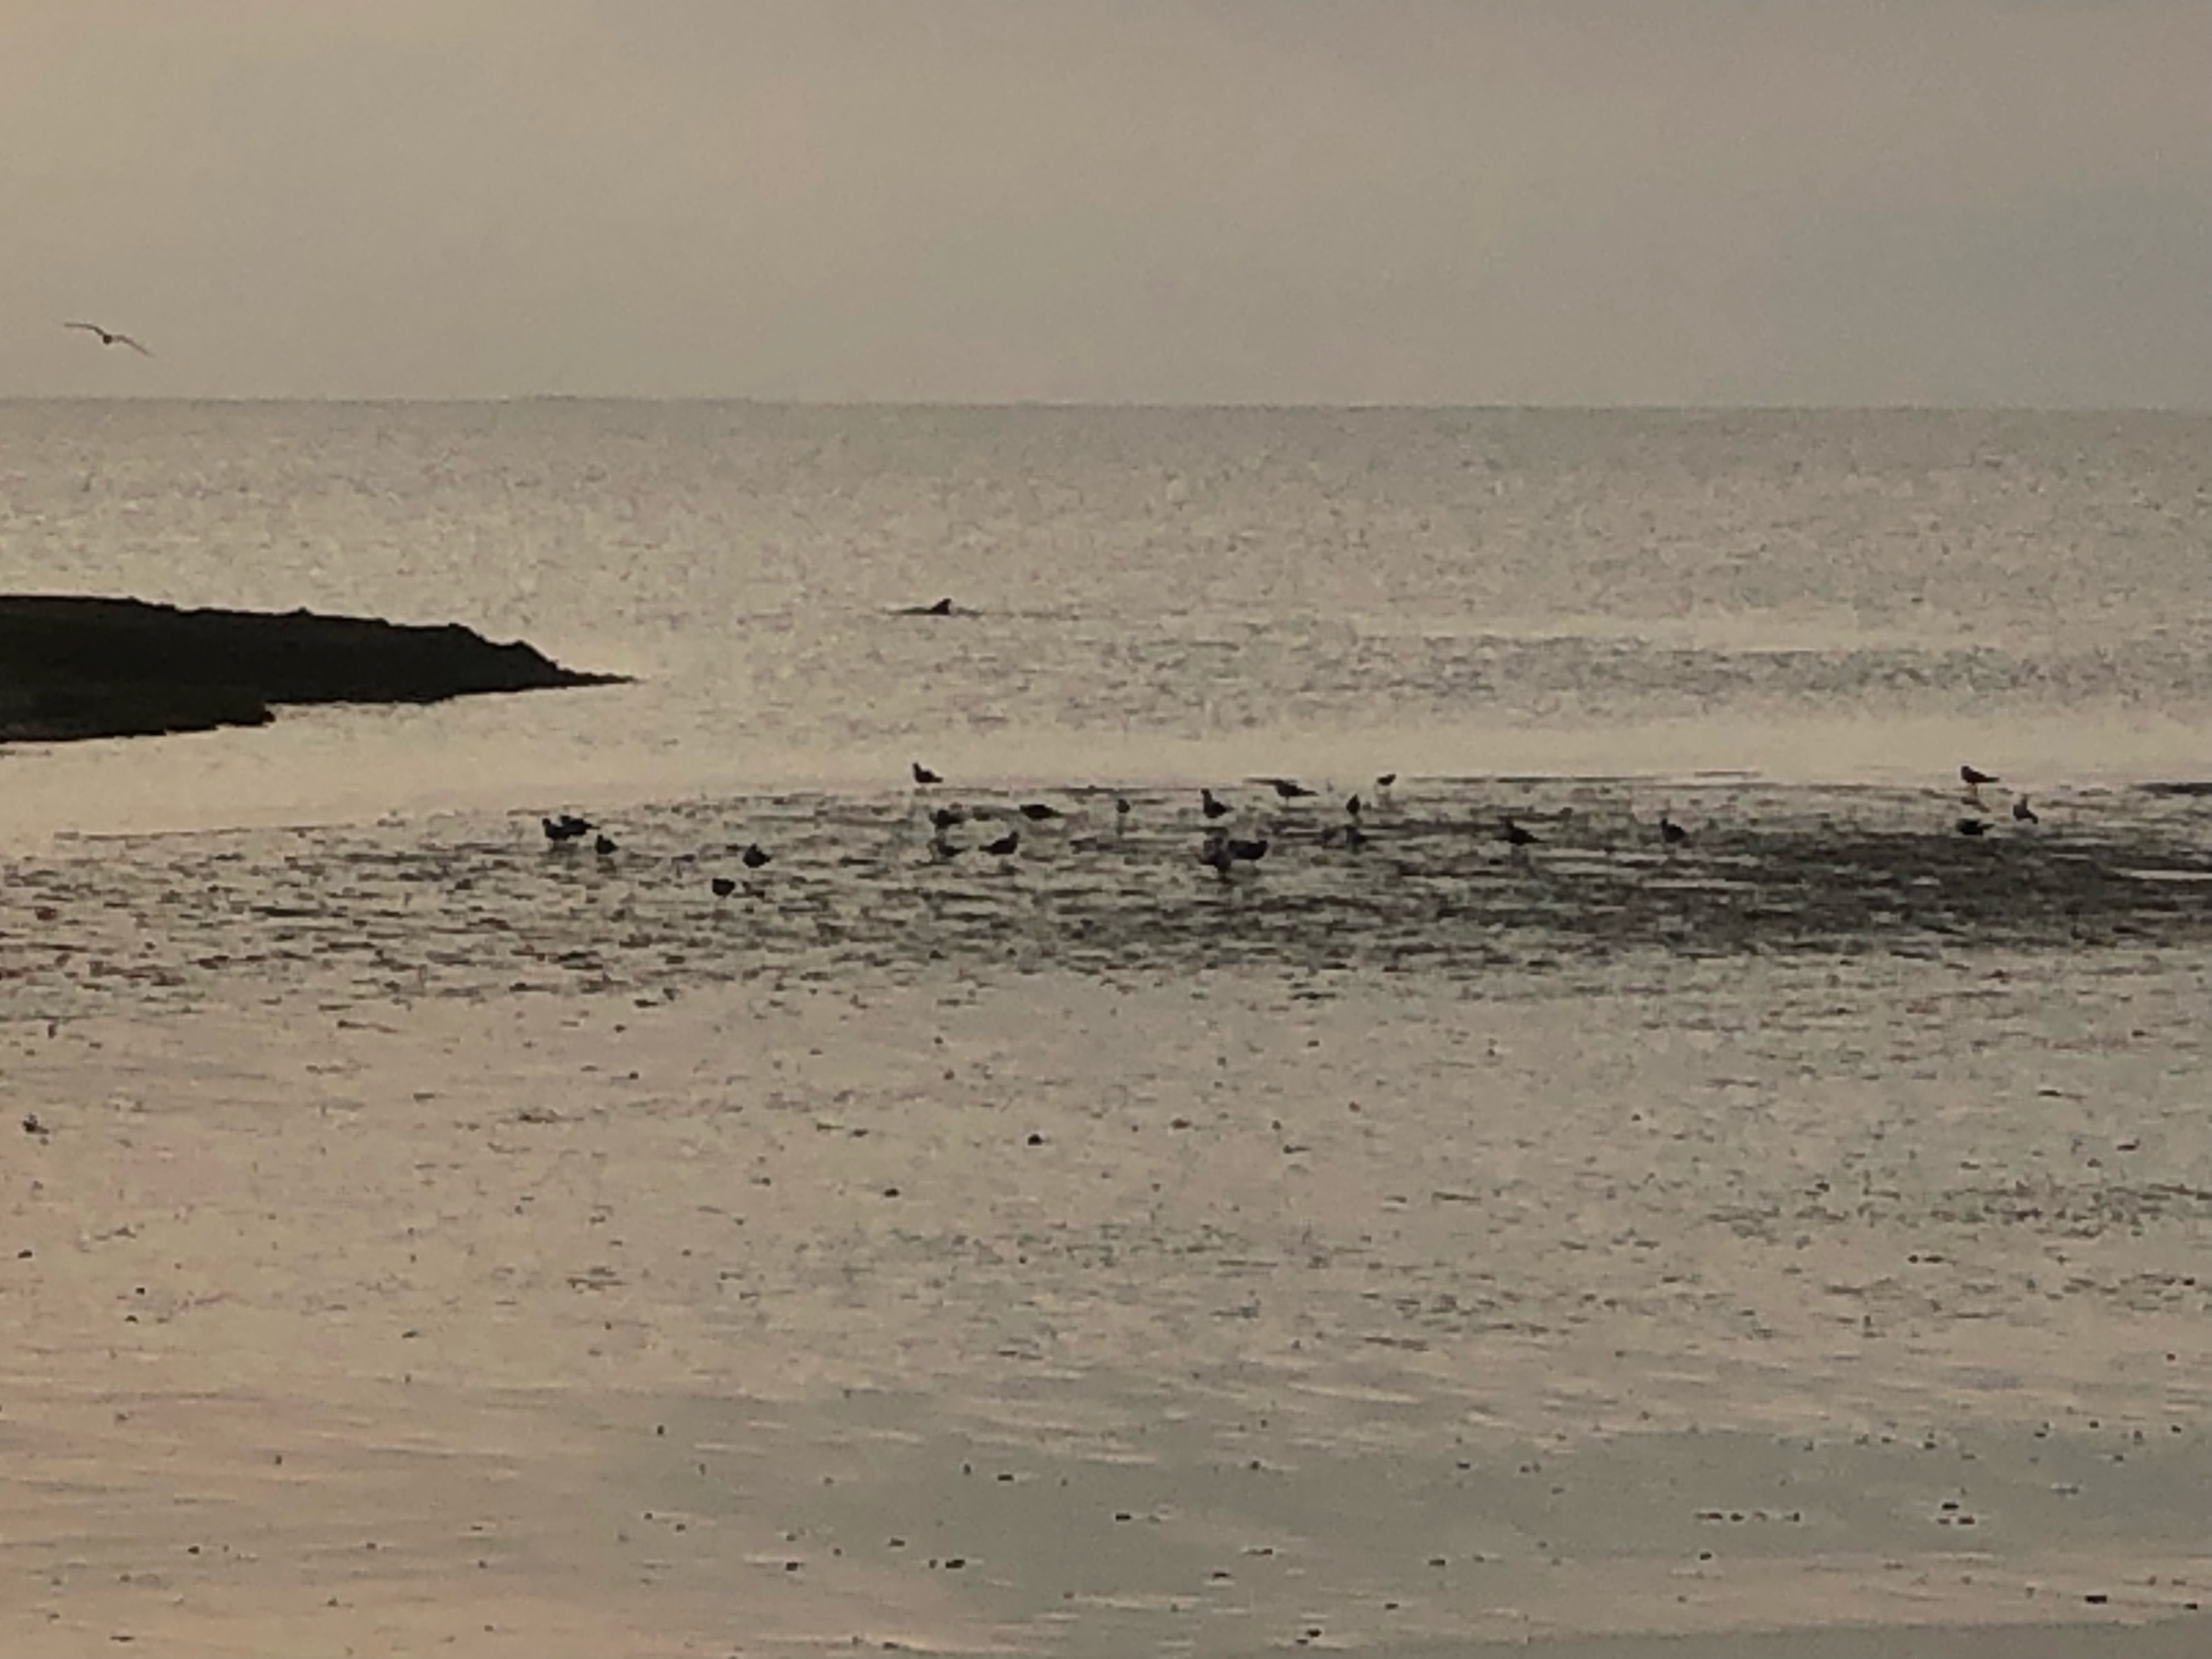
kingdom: Animalia
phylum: Chordata
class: Mammalia
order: Cetacea
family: Delphinidae
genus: Tursiops
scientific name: Tursiops truncatus
